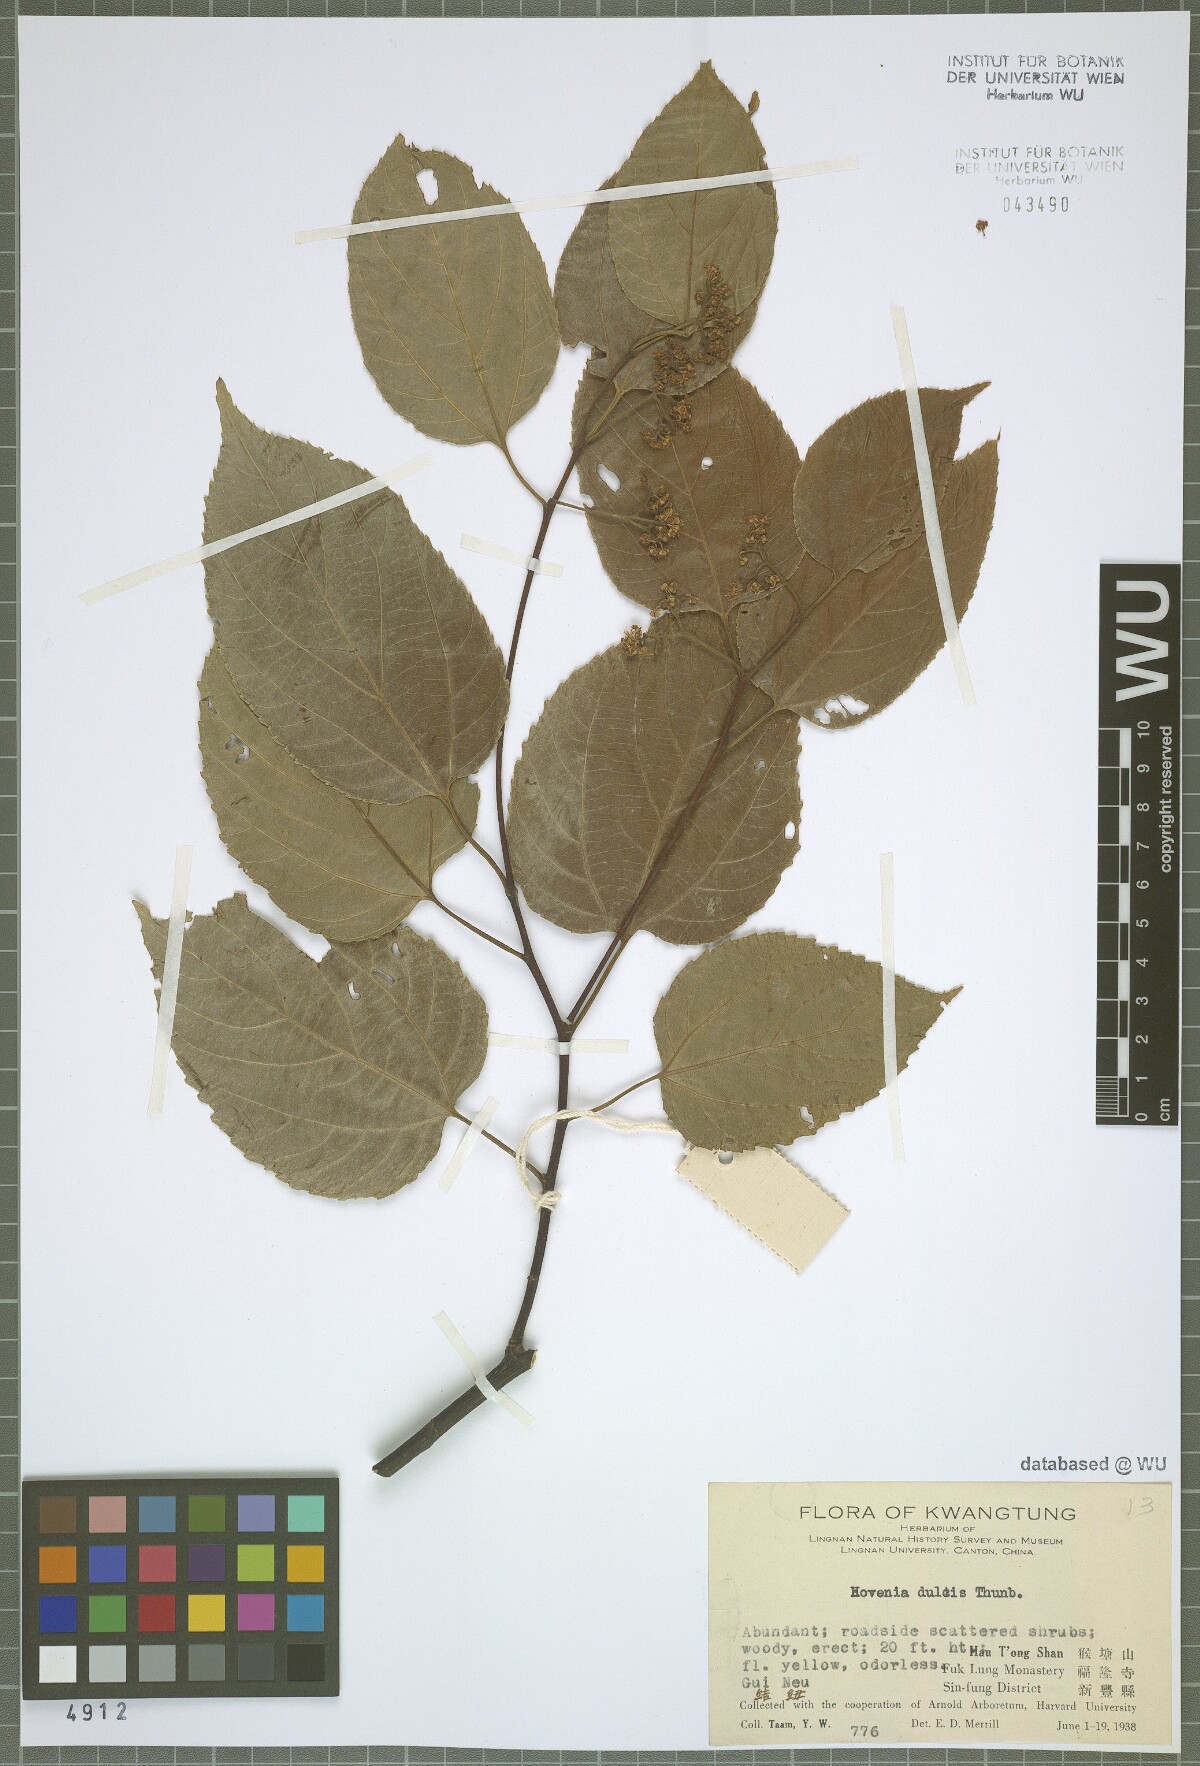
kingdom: Plantae
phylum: Tracheophyta
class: Magnoliopsida
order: Rosales
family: Rhamnaceae
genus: Hovenia
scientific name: Hovenia dulcis
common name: Japanese raisintree
